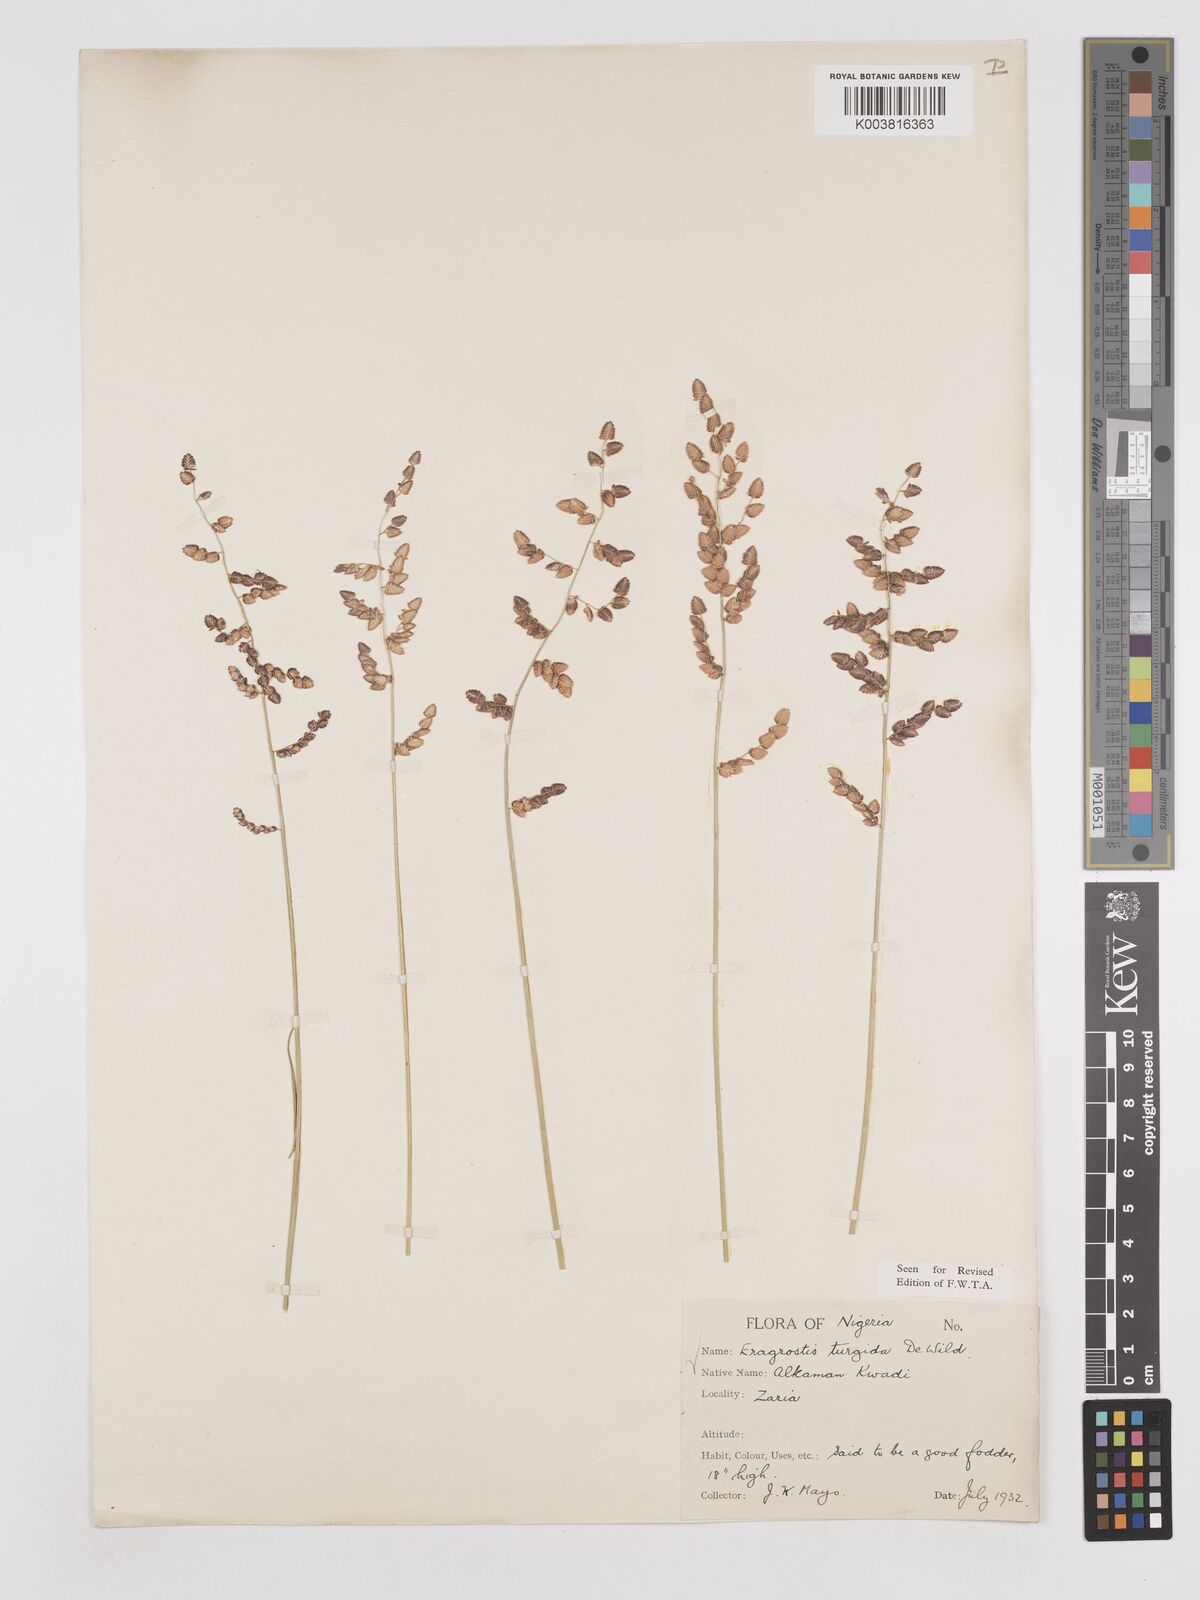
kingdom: Plantae
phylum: Tracheophyta
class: Liliopsida
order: Poales
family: Poaceae
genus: Eragrostis
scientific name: Eragrostis turgida
